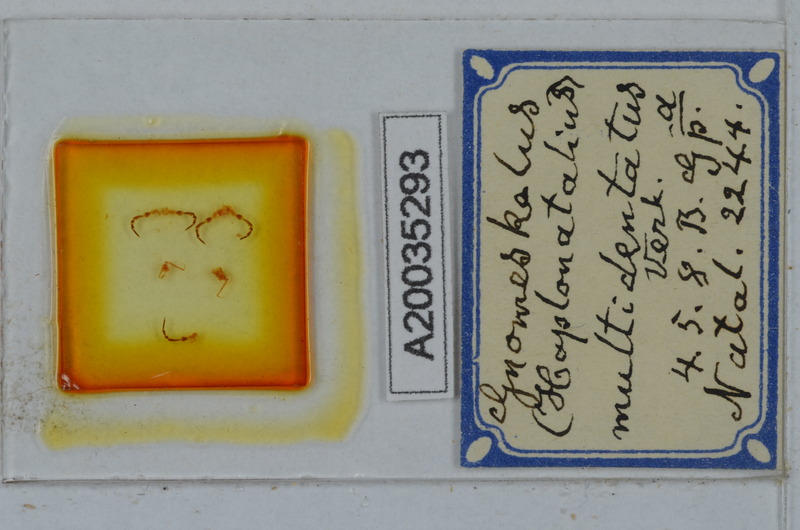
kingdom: Animalia
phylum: Arthropoda
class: Diplopoda
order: Polydesmida
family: Dalodesmidae
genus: Gnomeskelus
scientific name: Gnomeskelus multidentatus
